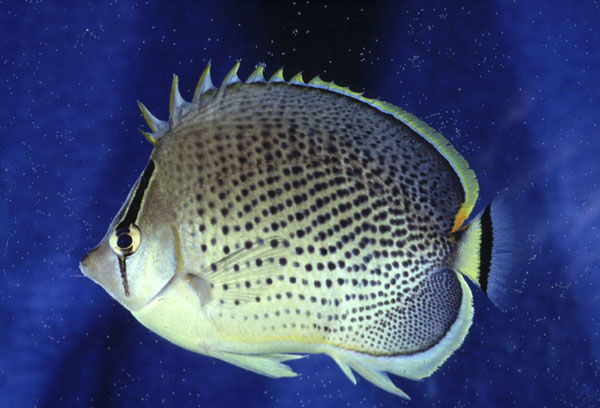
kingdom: Animalia
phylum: Chordata
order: Perciformes
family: Chaetodontidae
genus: Chaetodon
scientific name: Chaetodon guttatissimus
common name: Spotted butterflyfish
